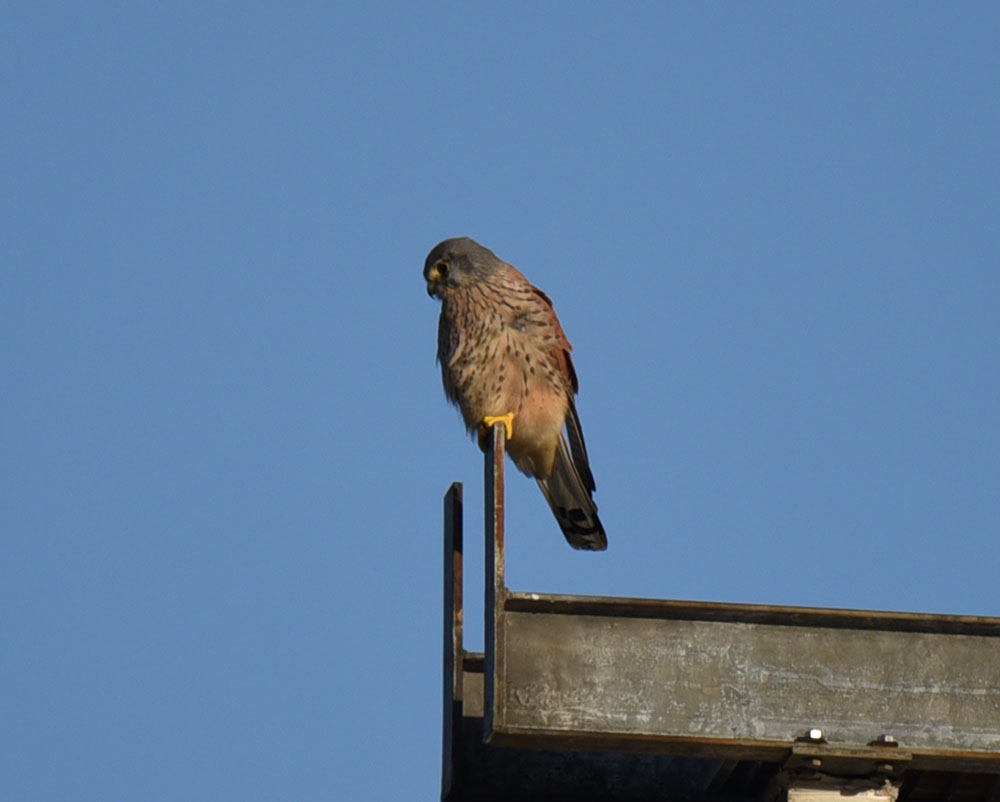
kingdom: Animalia
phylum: Chordata
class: Aves
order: Falconiformes
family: Falconidae
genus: Falco
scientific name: Falco tinnunculus
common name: Common kestrel
